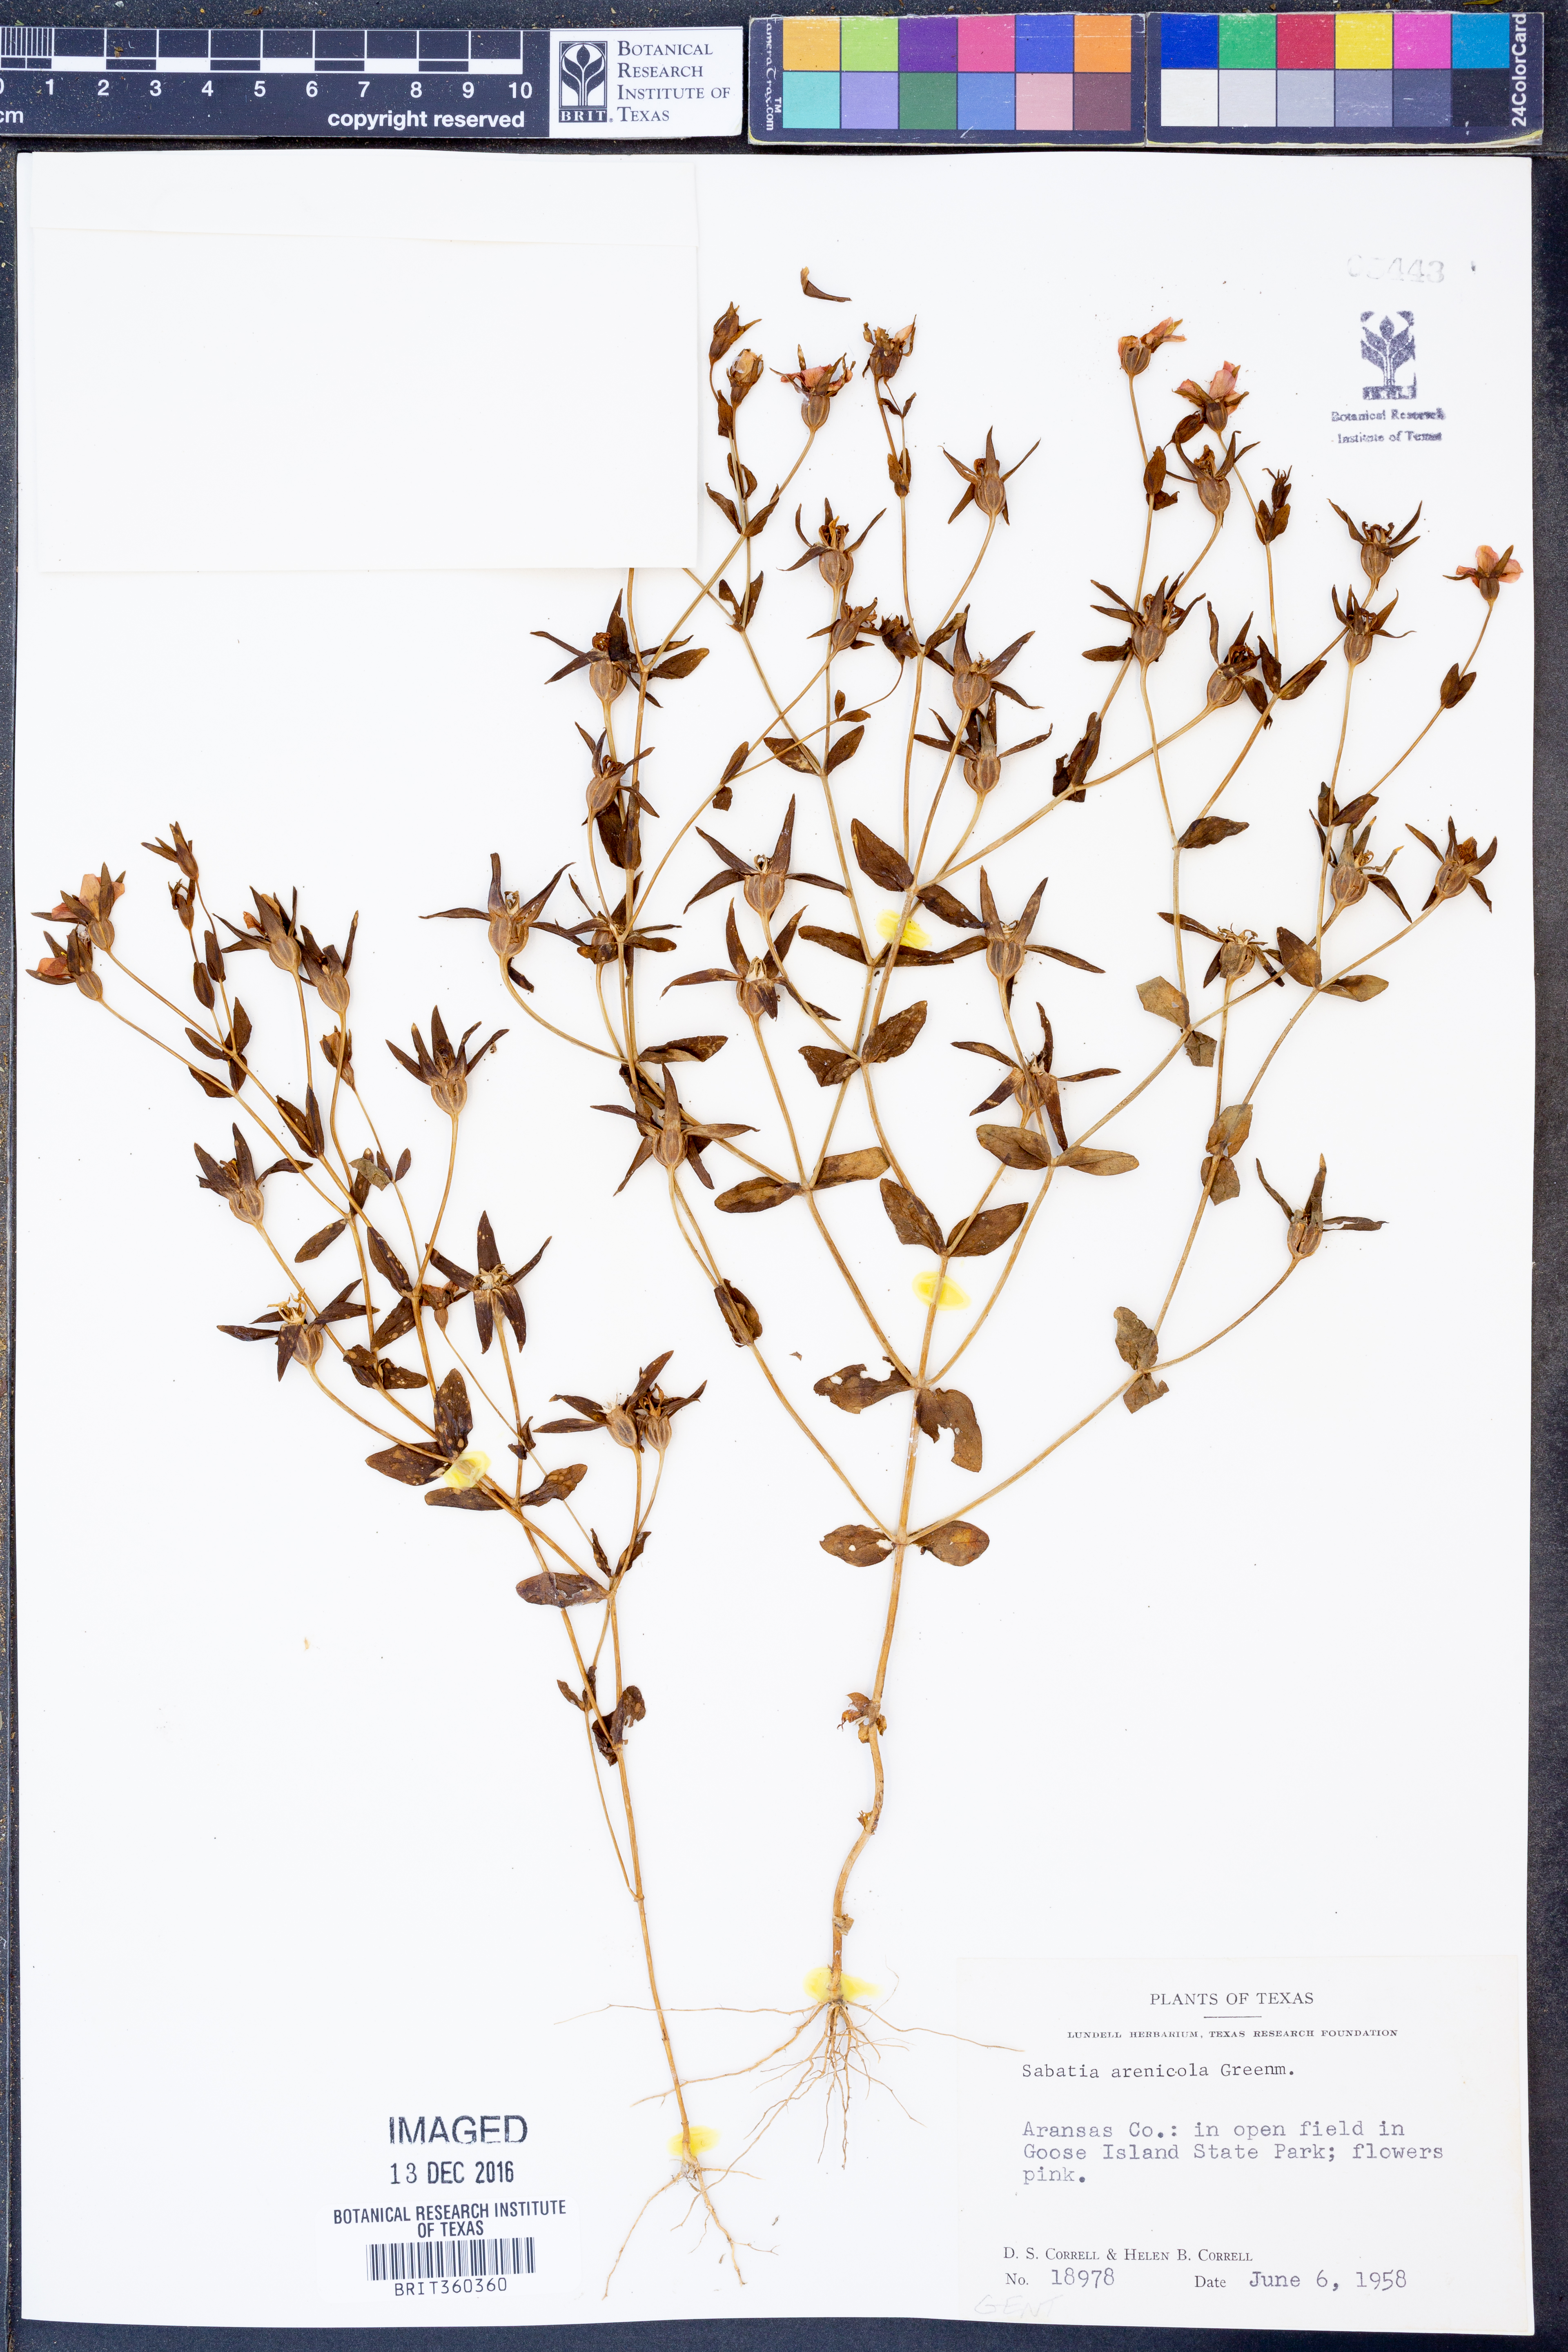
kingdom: Plantae
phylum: Tracheophyta
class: Magnoliopsida
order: Gentianales
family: Gentianaceae
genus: Sabatia
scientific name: Sabatia arenicola
